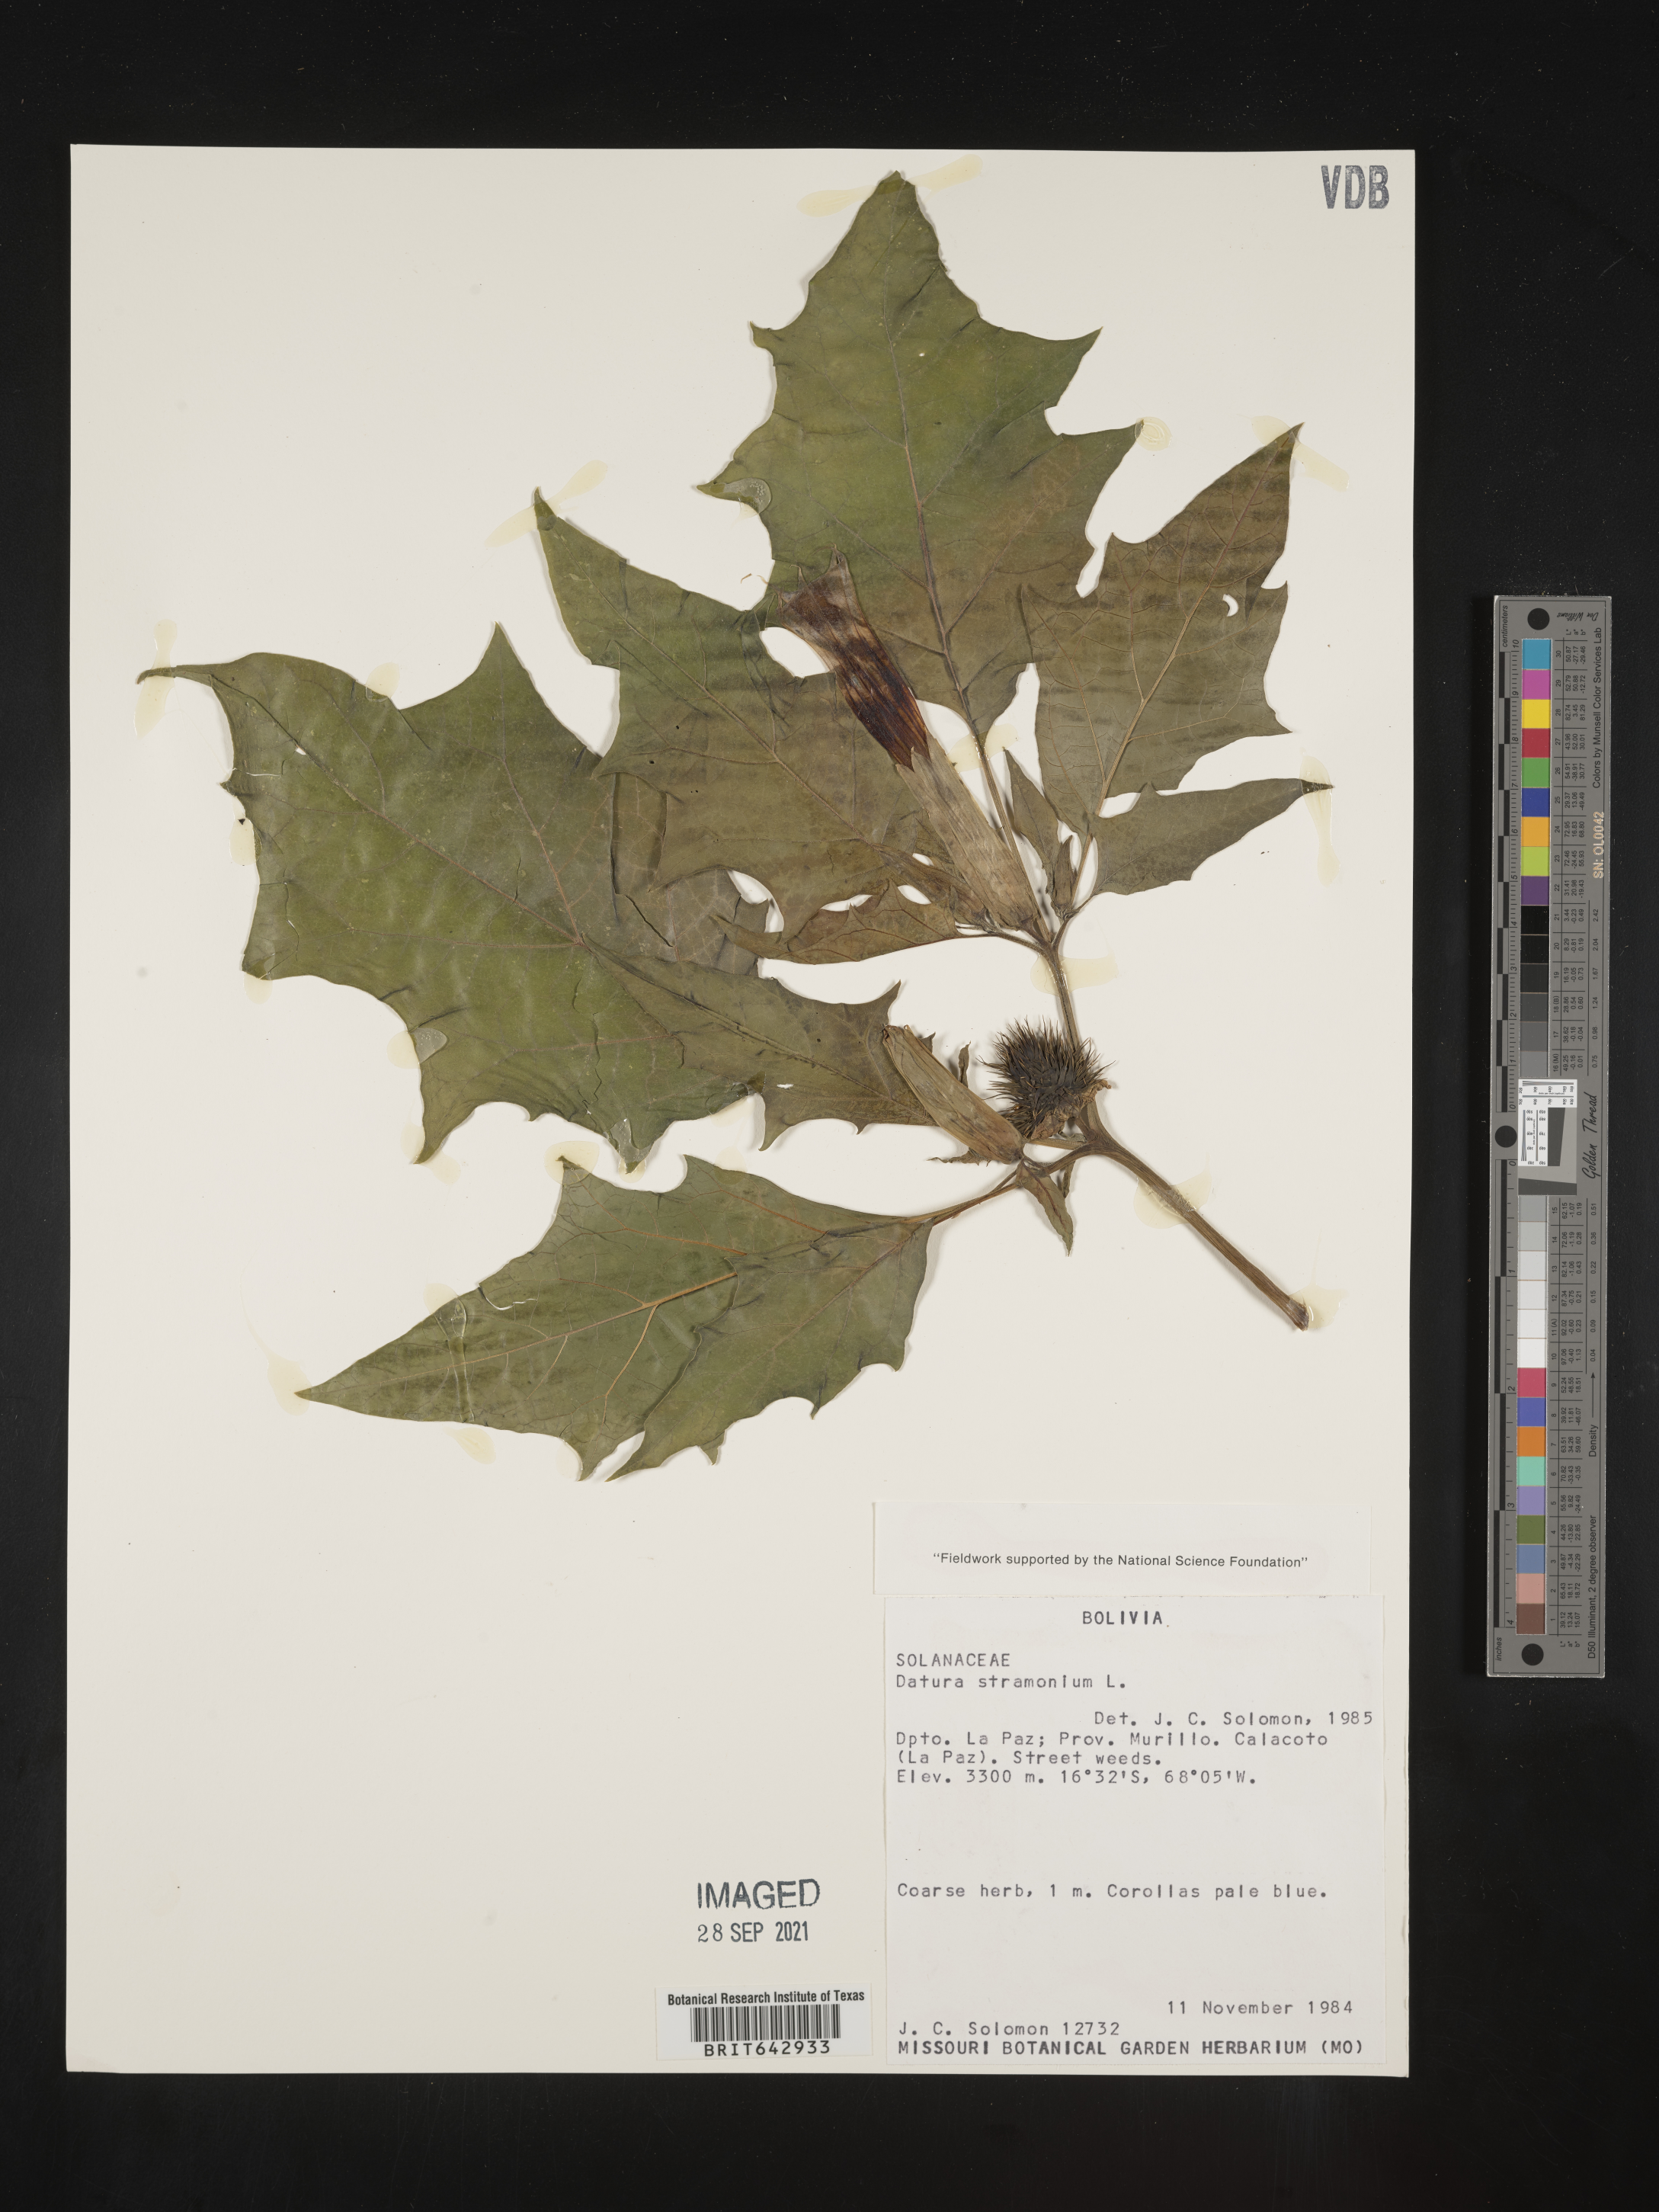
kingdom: Plantae
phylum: Tracheophyta
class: Magnoliopsida
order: Solanales
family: Solanaceae
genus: Datura
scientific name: Datura
